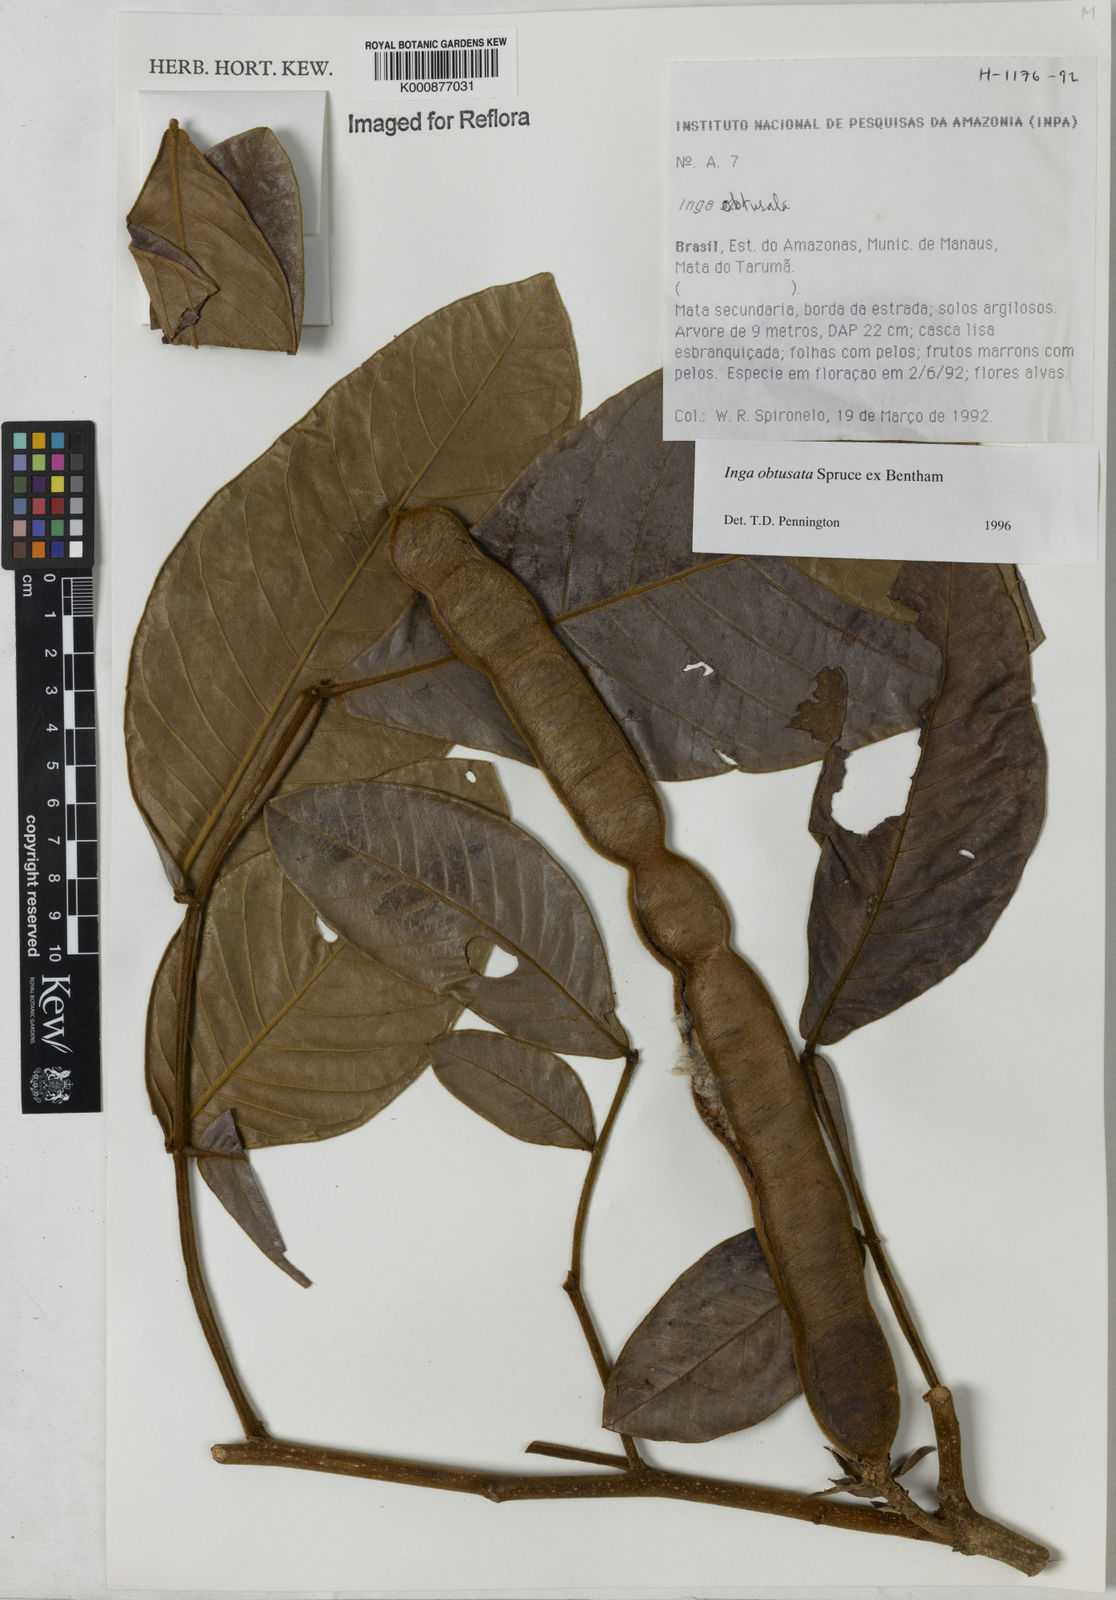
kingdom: Plantae
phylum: Tracheophyta
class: Magnoliopsida
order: Fabales
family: Fabaceae
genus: Inga
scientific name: Inga obtusata
